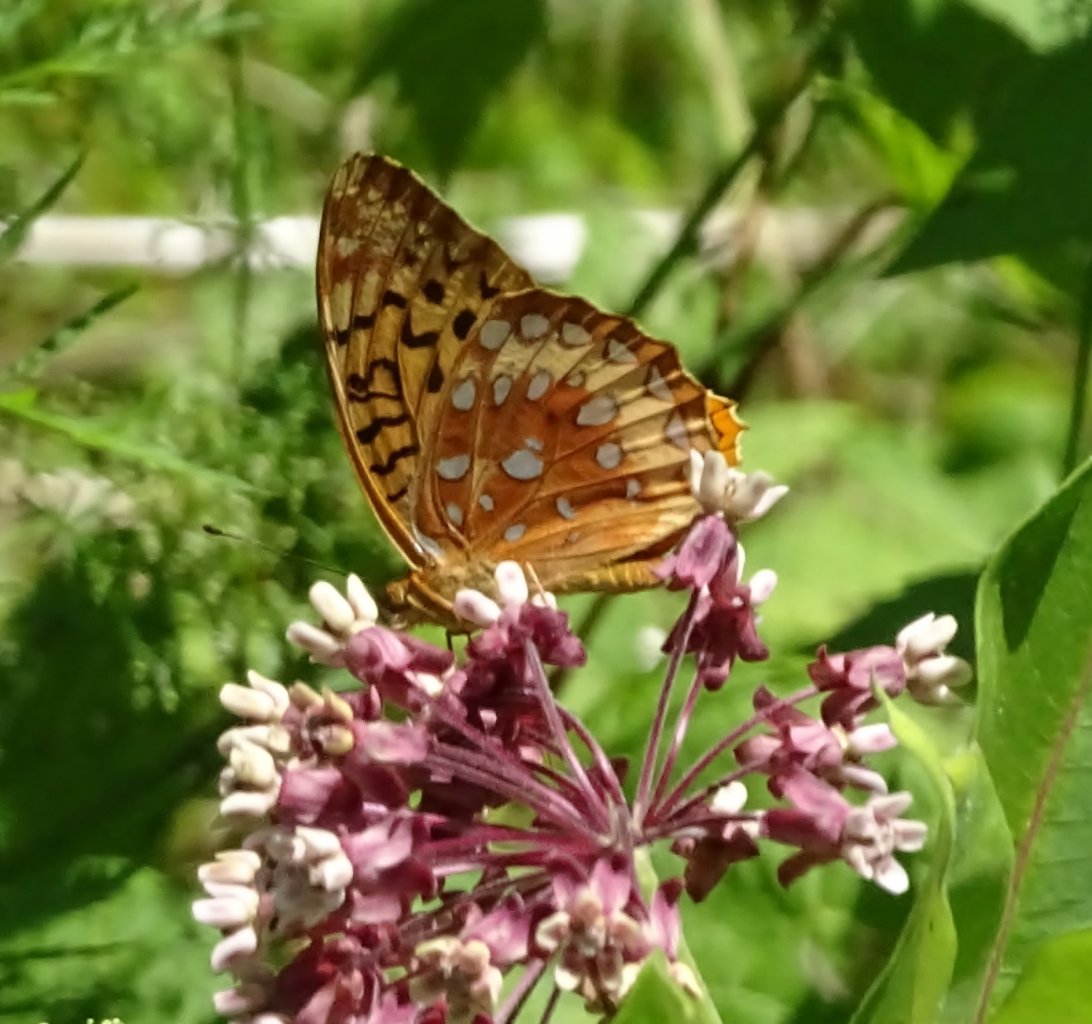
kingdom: Animalia
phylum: Arthropoda
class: Insecta
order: Lepidoptera
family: Nymphalidae
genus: Speyeria
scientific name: Speyeria cybele
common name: Great Spangled Fritillary
